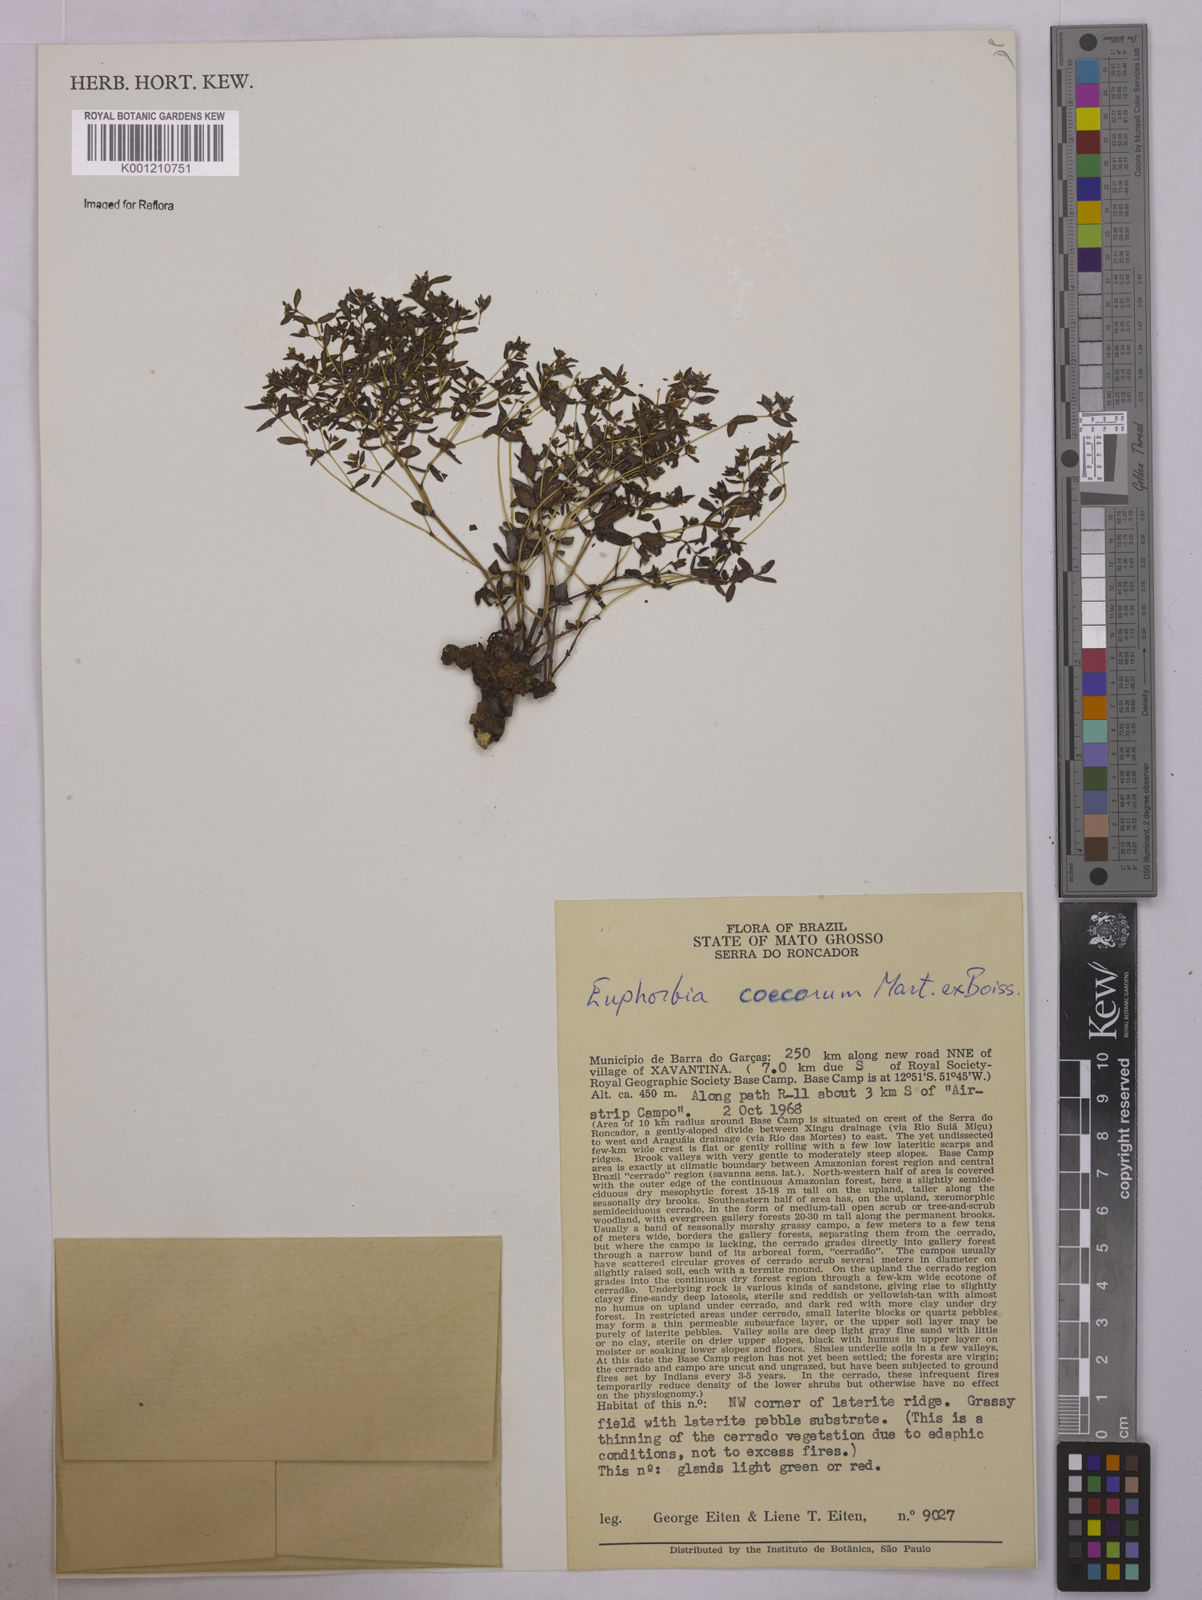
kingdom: Plantae
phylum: Tracheophyta
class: Magnoliopsida
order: Malpighiales
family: Euphorbiaceae
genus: Euphorbia
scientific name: Euphorbia potentilloides
